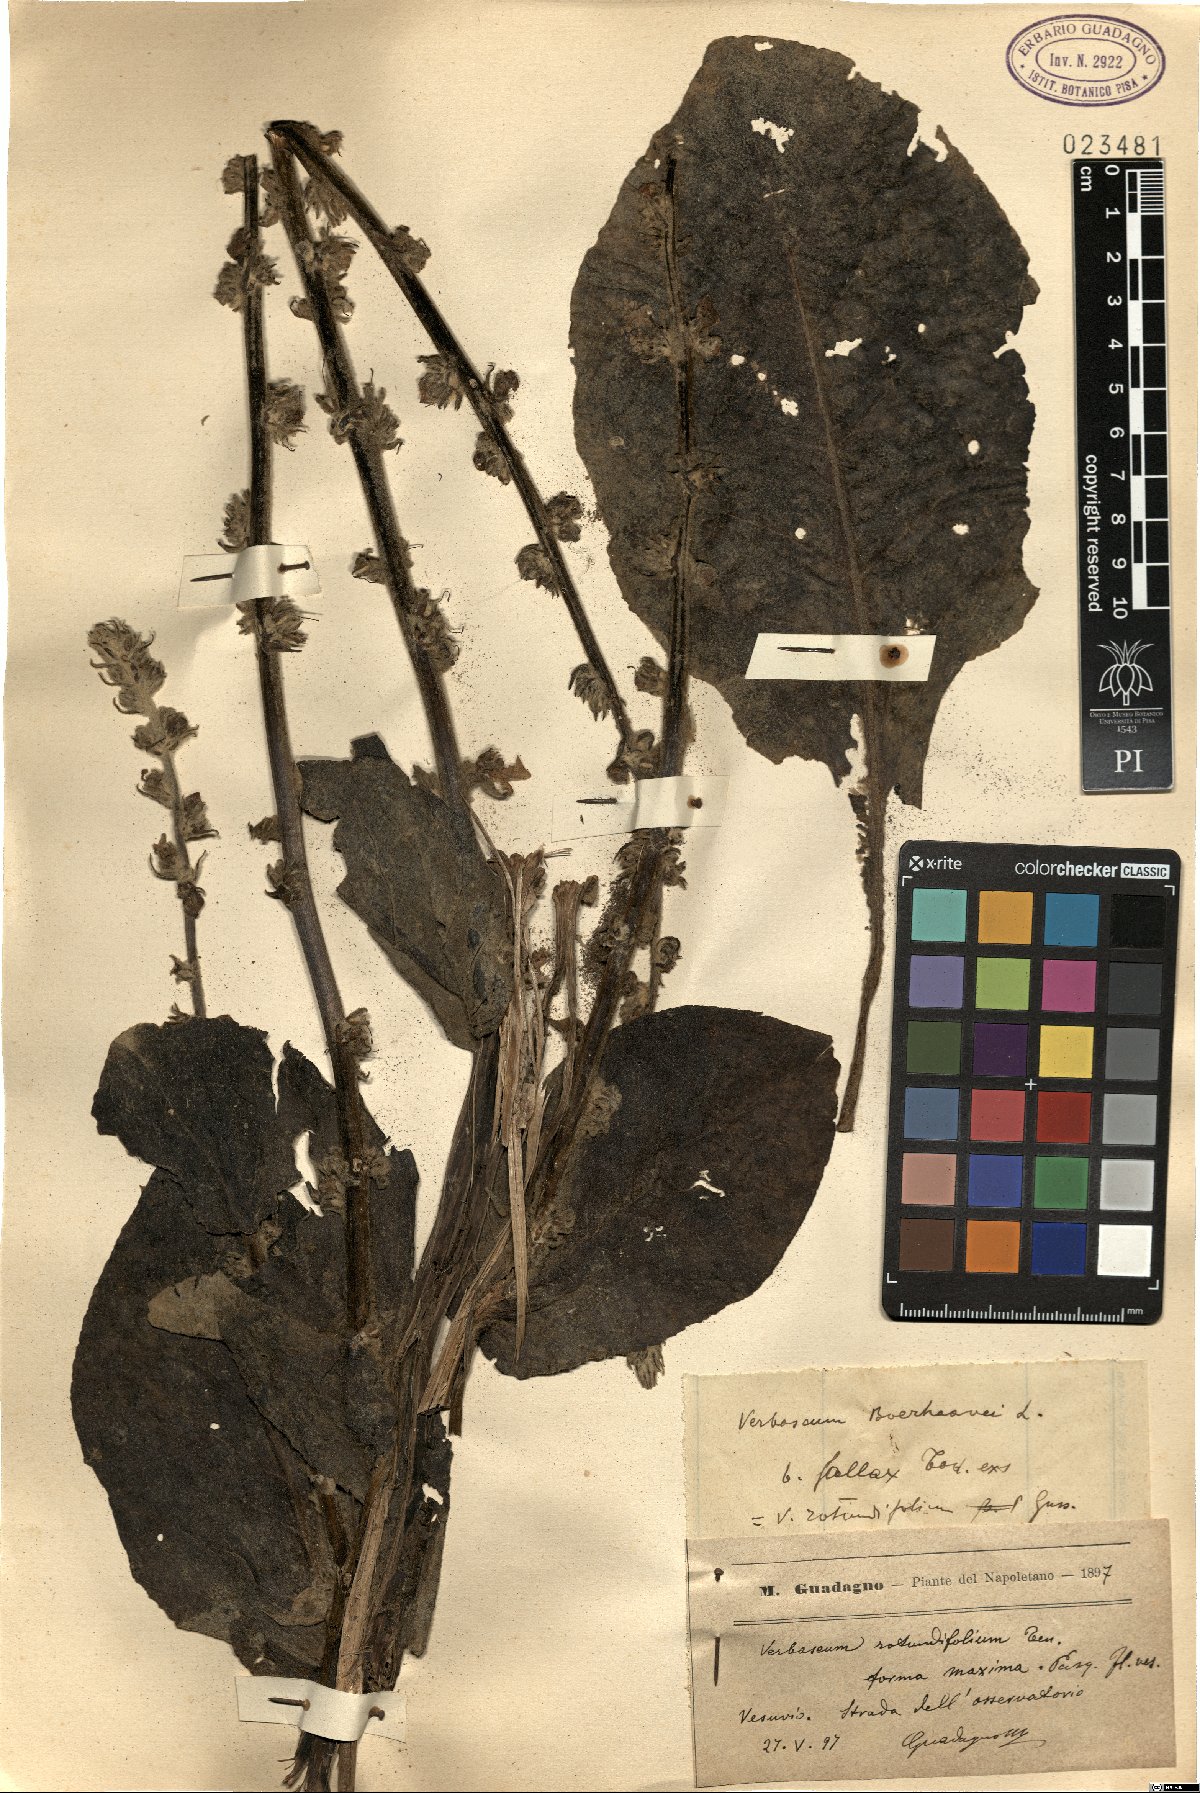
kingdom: Plantae
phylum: Tracheophyta
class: Magnoliopsida
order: Lamiales
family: Scrophulariaceae
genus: Verbascum
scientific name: Verbascum rotundifolium
